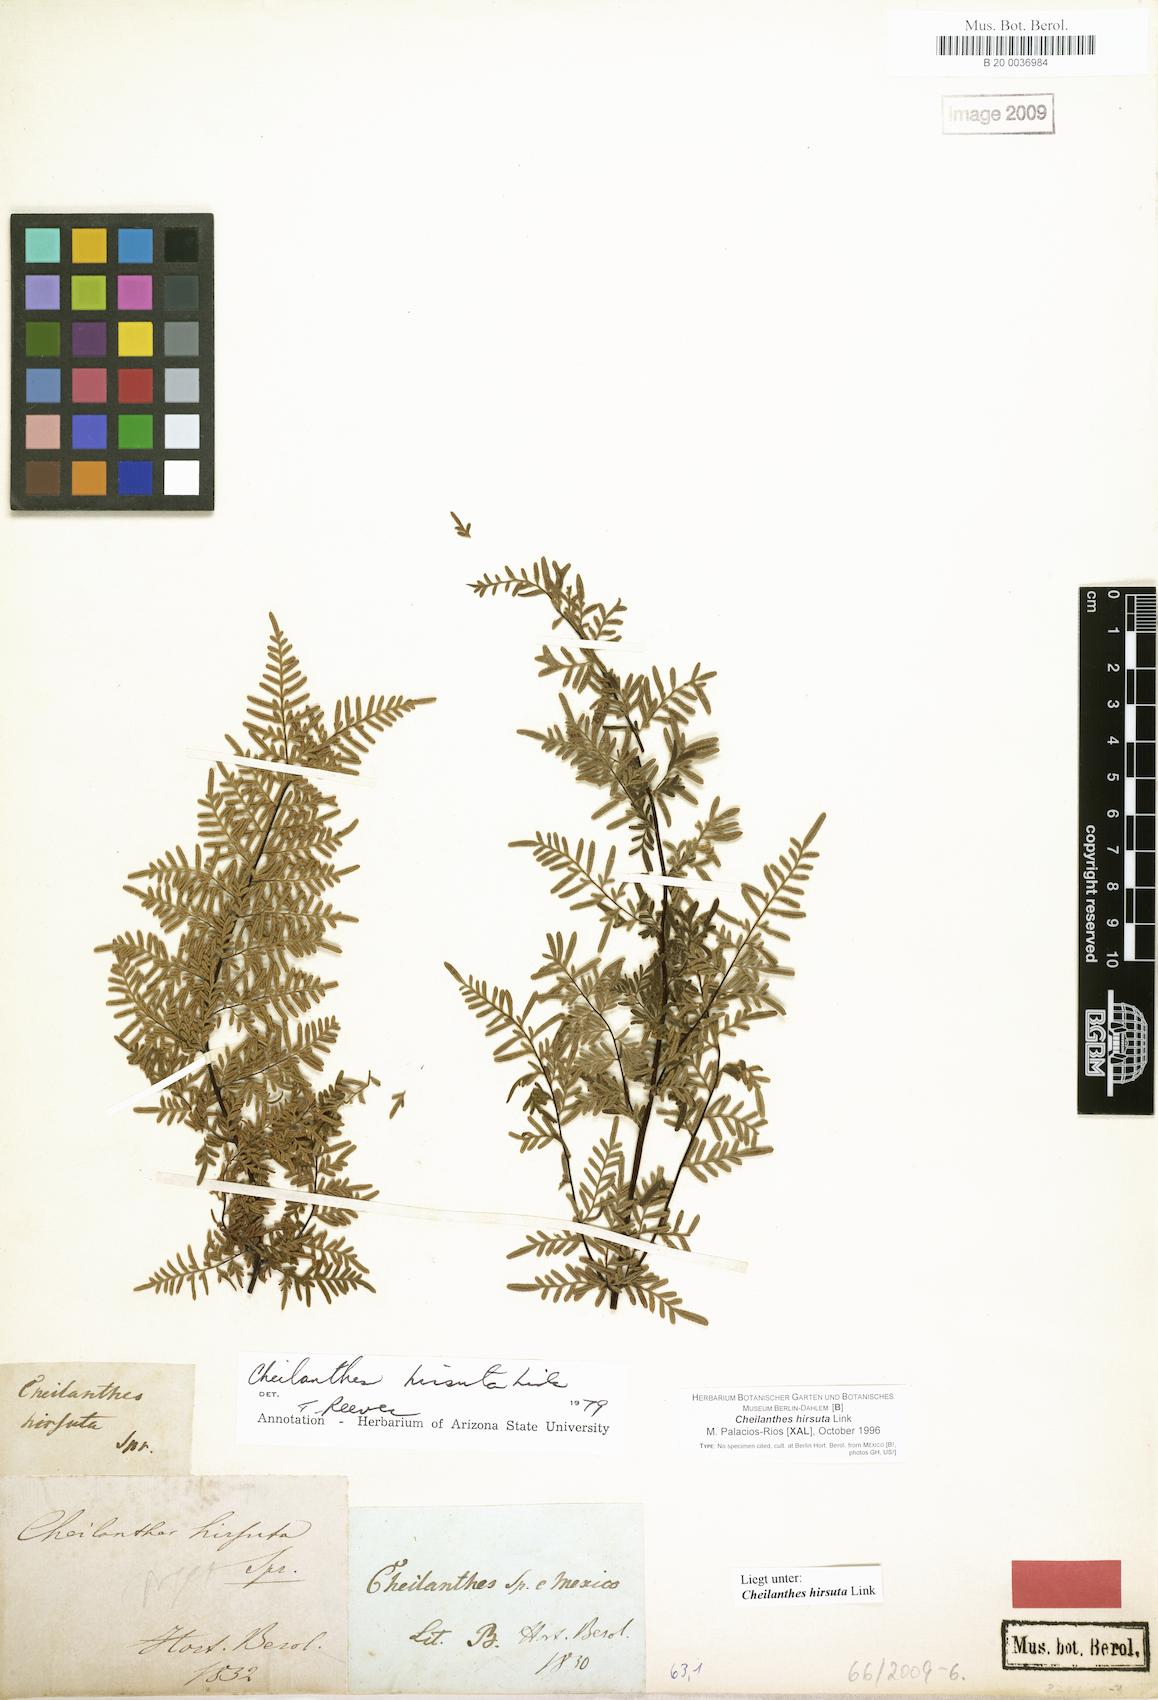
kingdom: Plantae
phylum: Tracheophyta
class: Polypodiopsida
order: Polypodiales
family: Pteridaceae
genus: Gaga
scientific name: Gaga hirsuta
